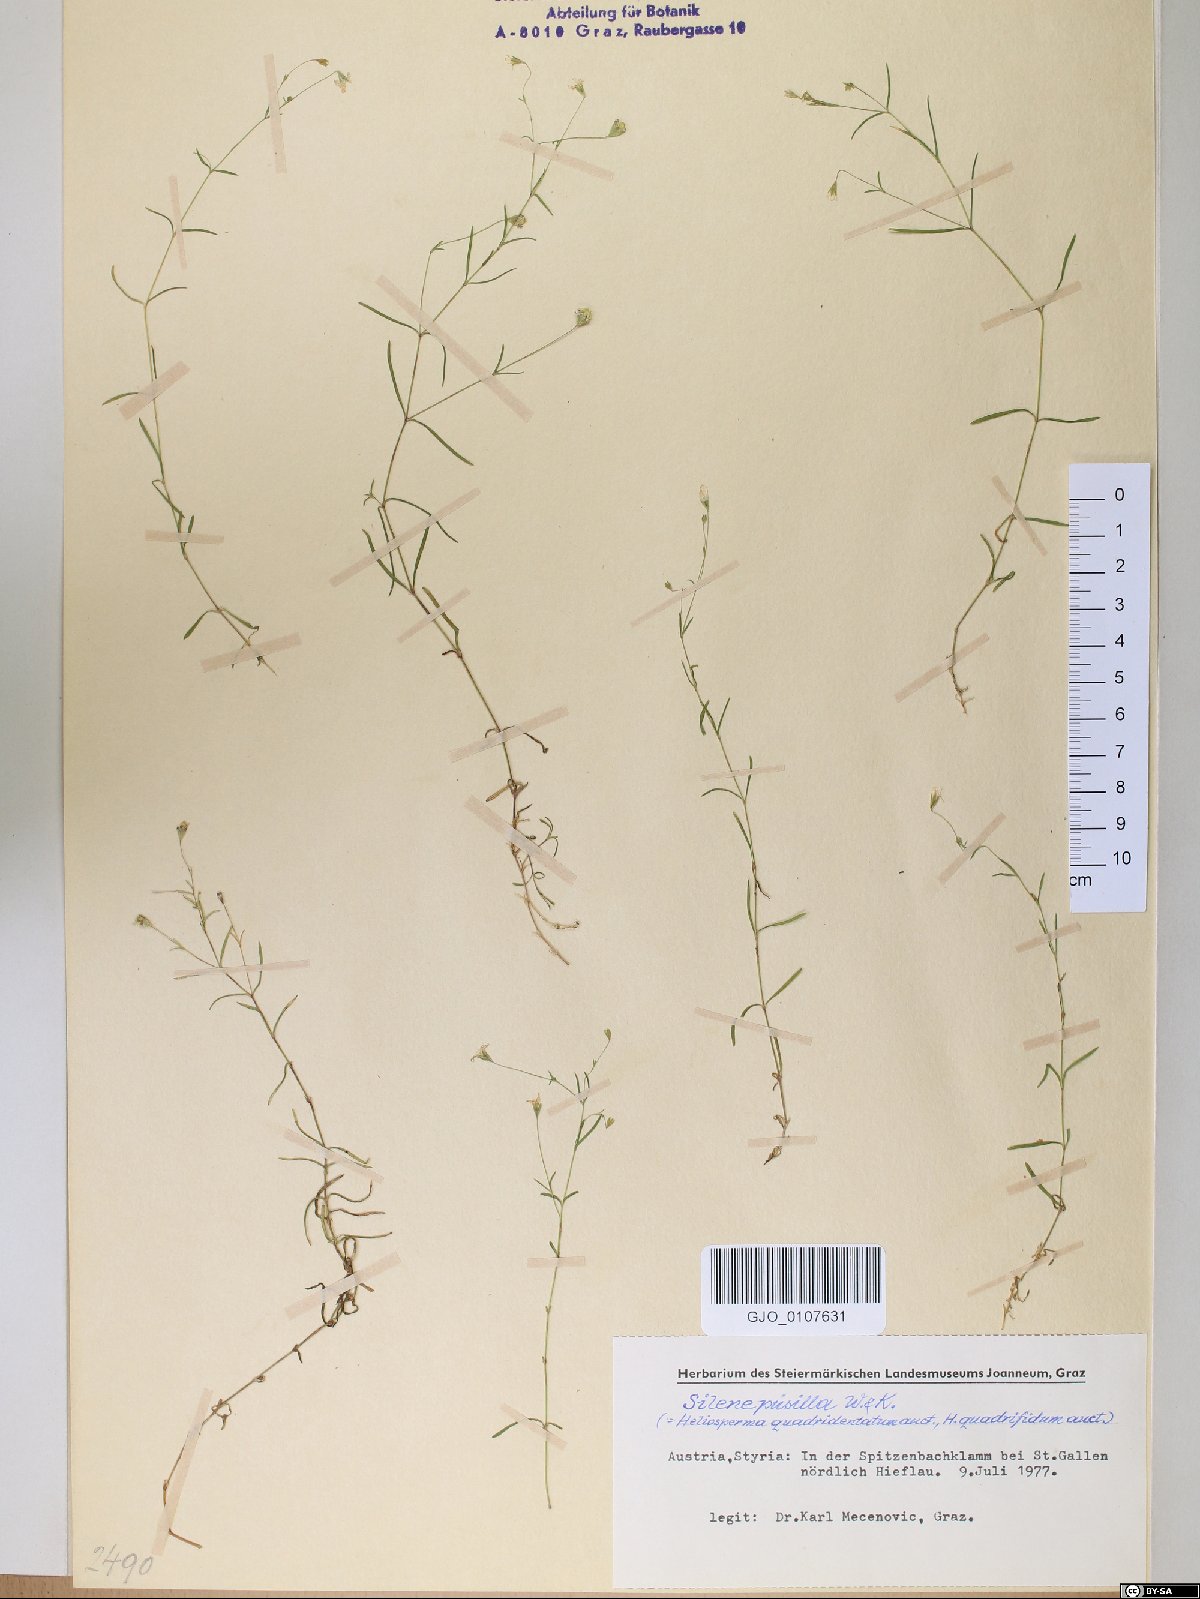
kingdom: Plantae
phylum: Tracheophyta
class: Magnoliopsida
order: Caryophyllales
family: Caryophyllaceae
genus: Heliosperma
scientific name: Heliosperma pusillum
